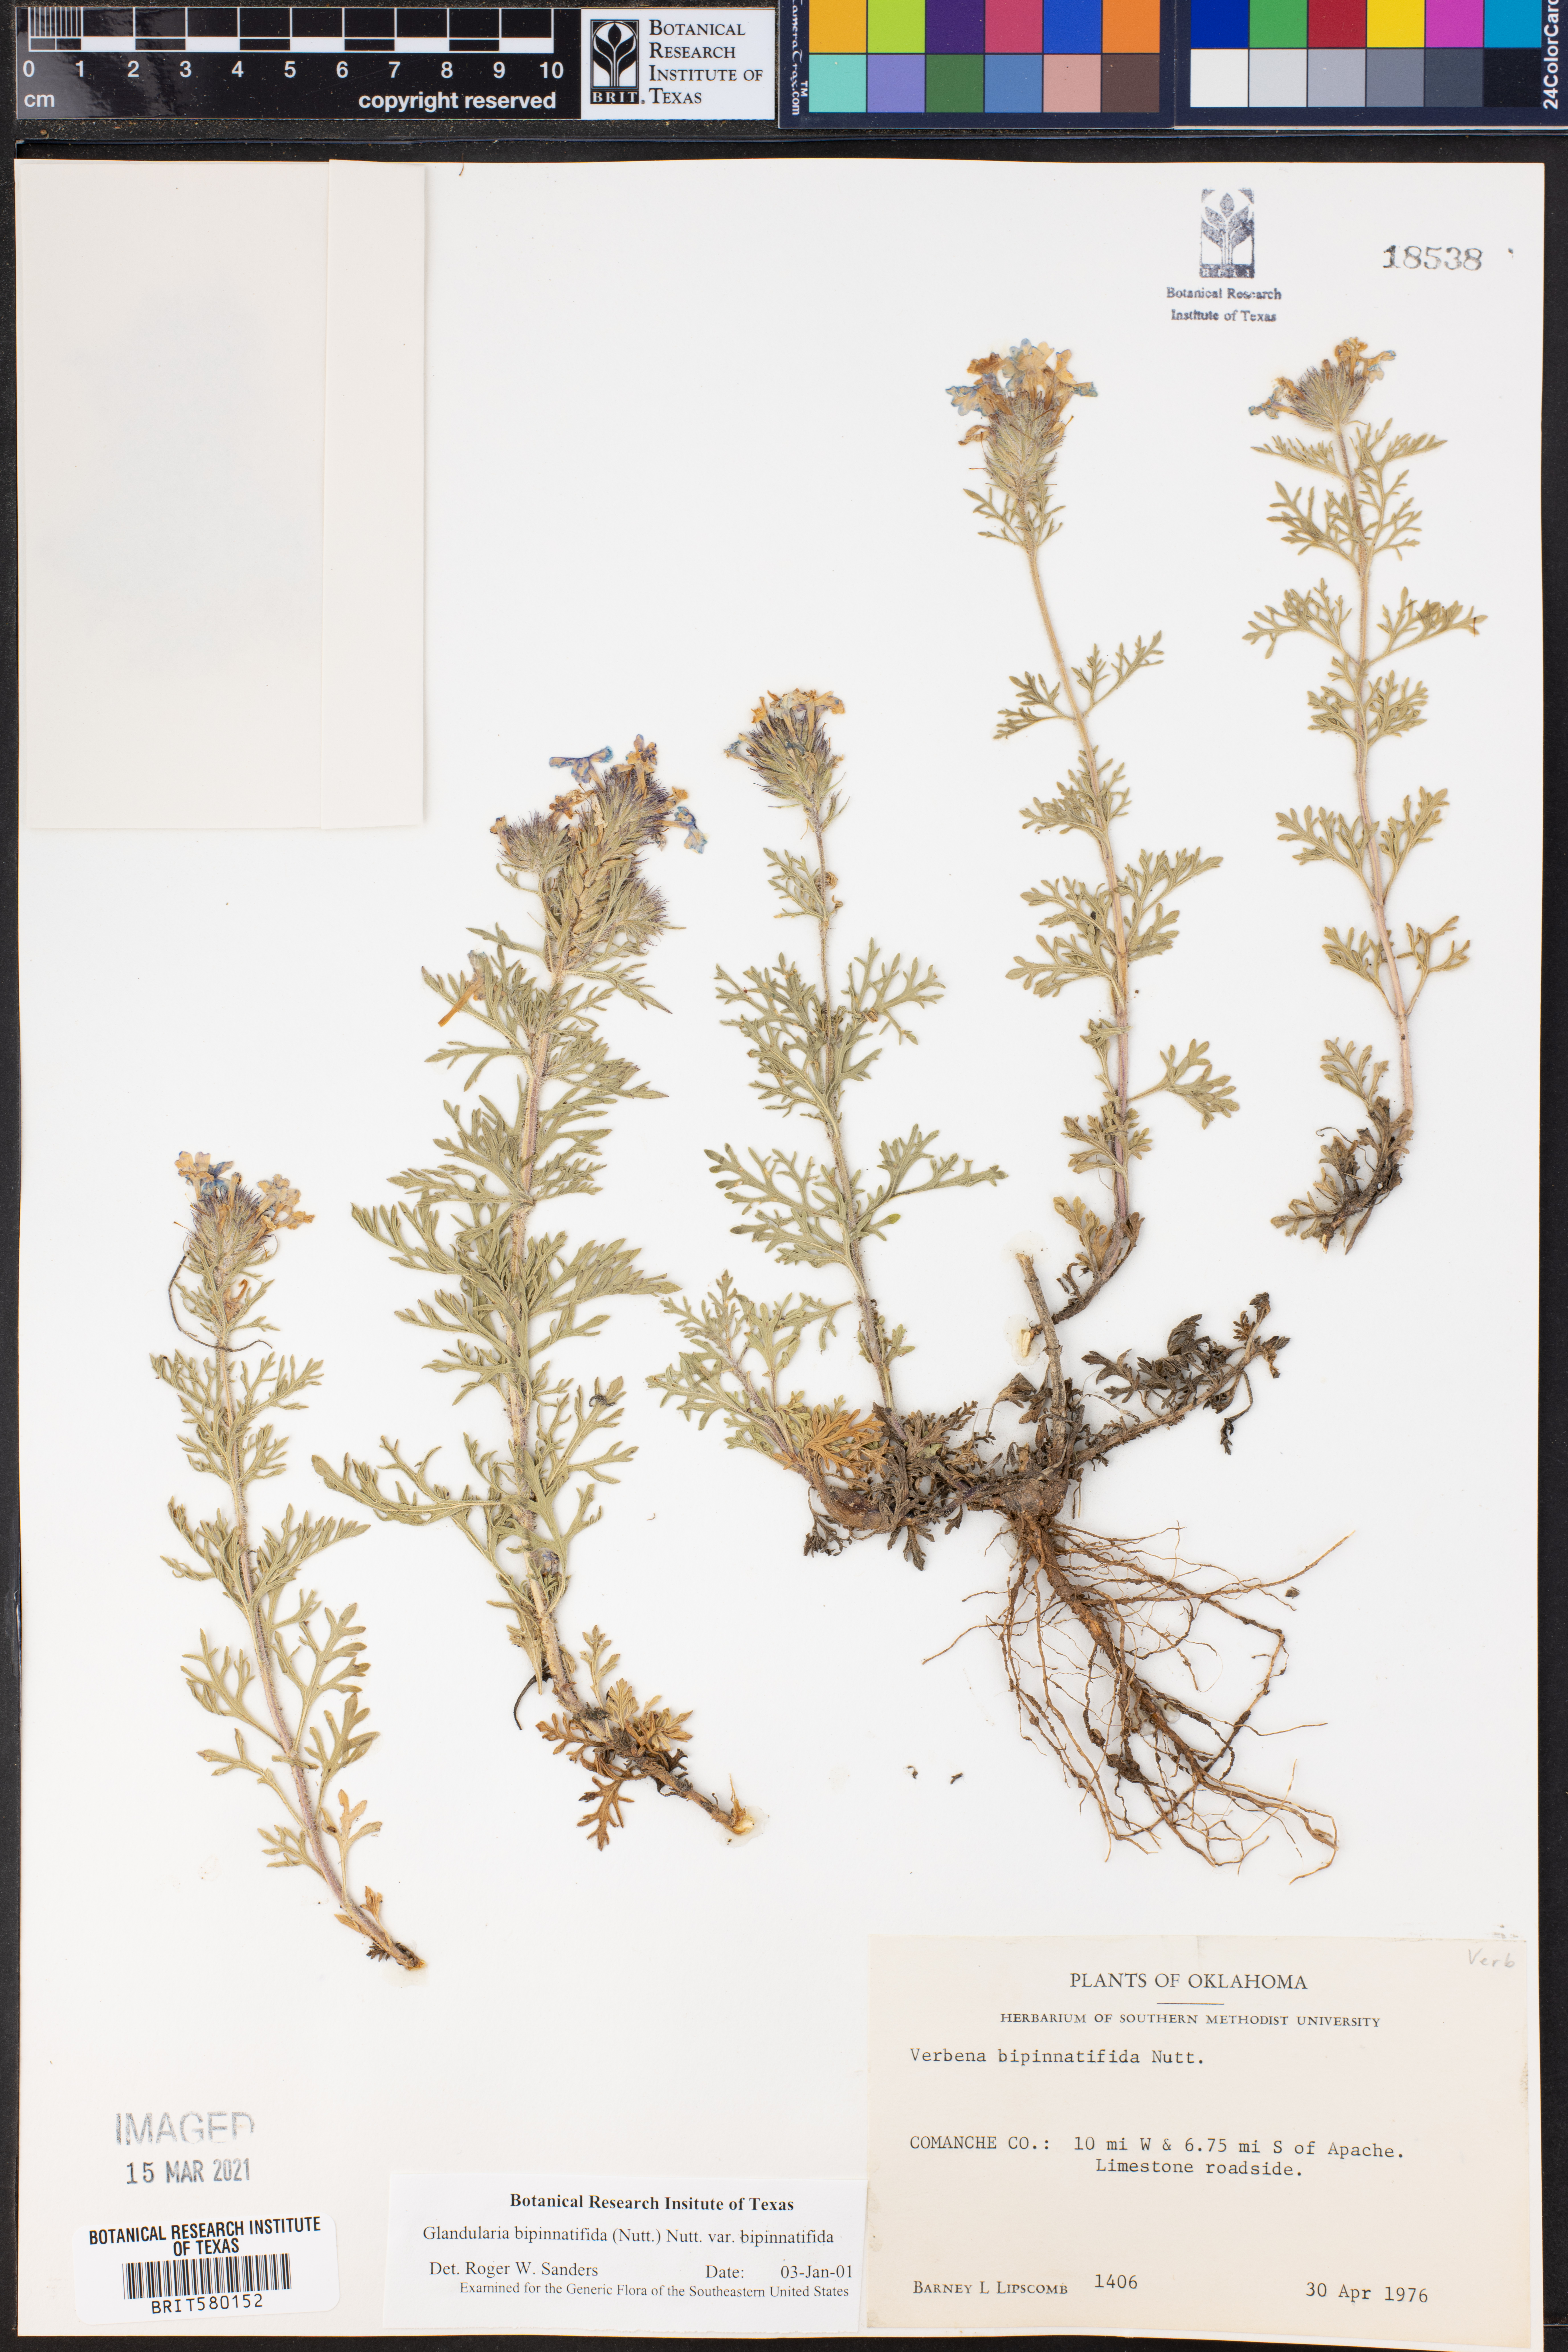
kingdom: Plantae
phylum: Tracheophyta
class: Magnoliopsida
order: Lamiales
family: Verbenaceae
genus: Verbena
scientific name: Verbena bipinnatifida
